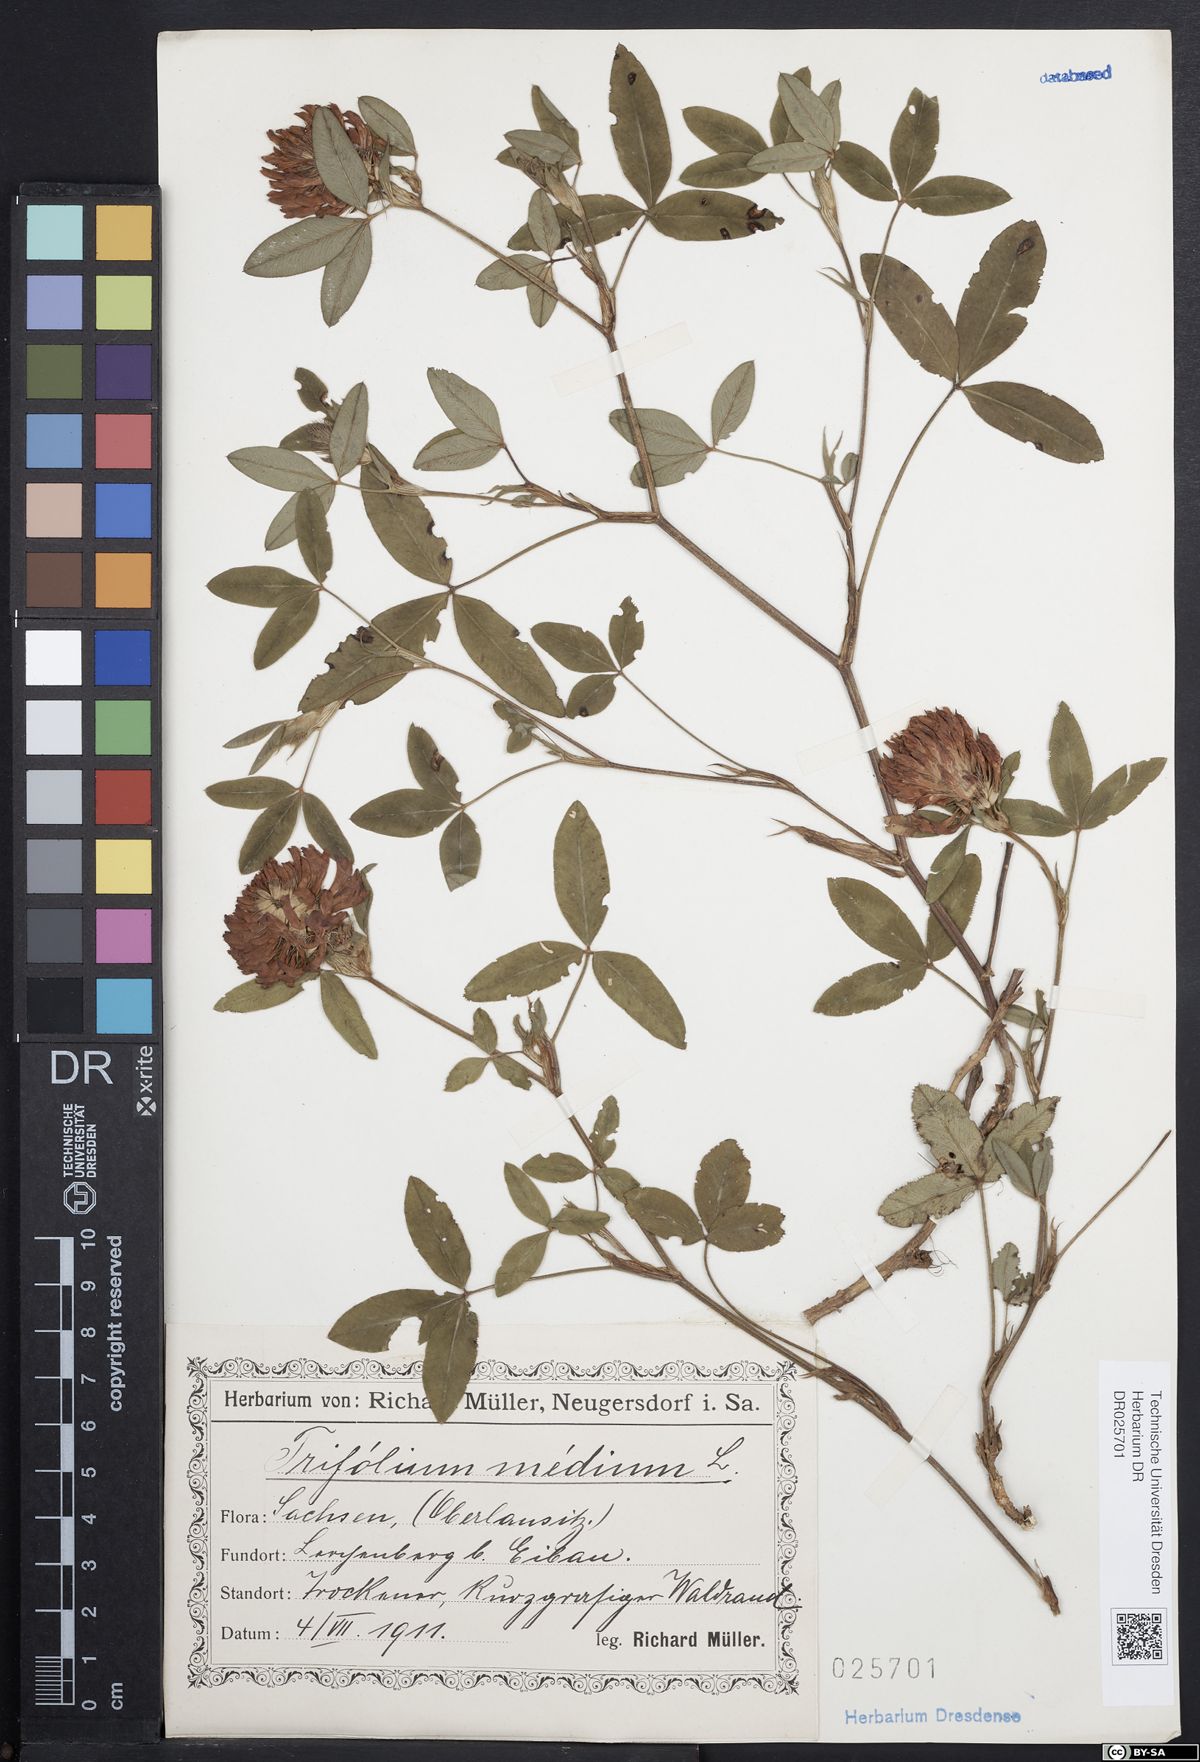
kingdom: Plantae
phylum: Tracheophyta
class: Magnoliopsida
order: Fabales
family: Fabaceae
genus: Trifolium
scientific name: Trifolium medium
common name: Zigzag clover
